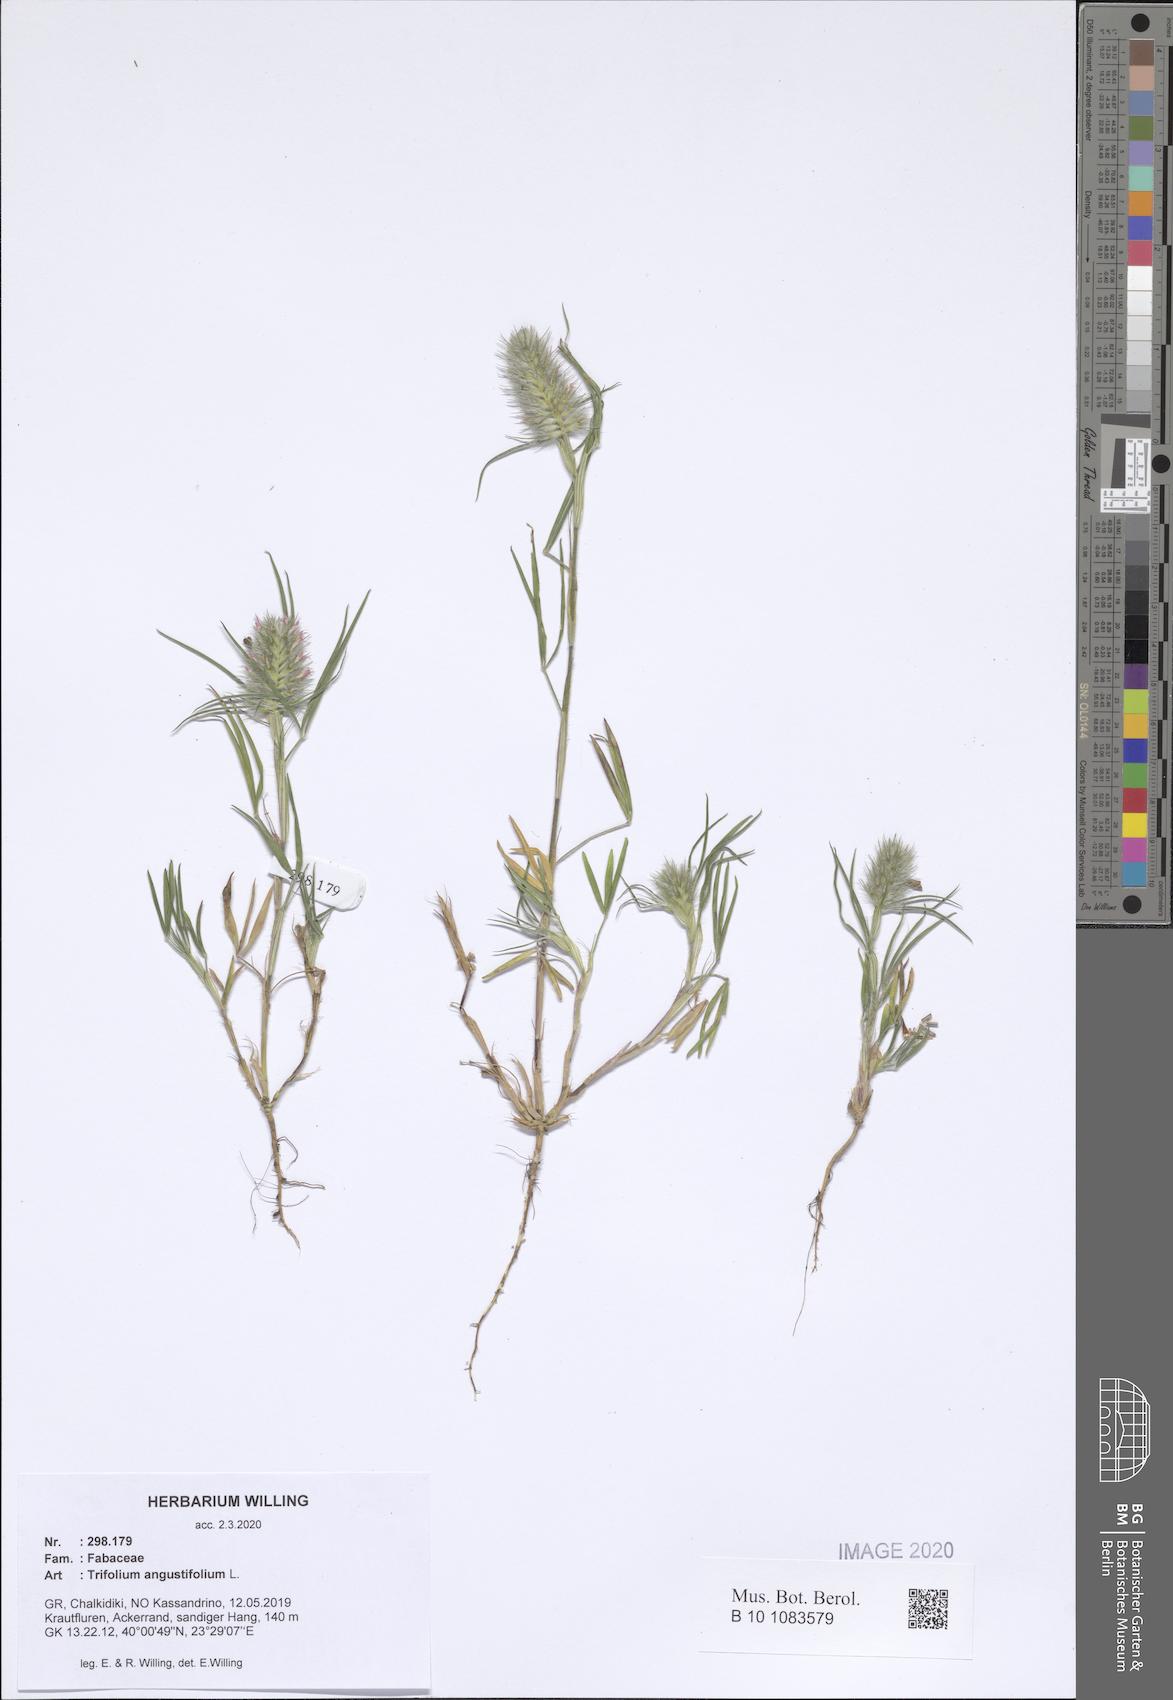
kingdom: Plantae
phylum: Tracheophyta
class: Magnoliopsida
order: Fabales
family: Fabaceae
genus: Trifolium
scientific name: Trifolium angustifolium
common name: Narrow clover
